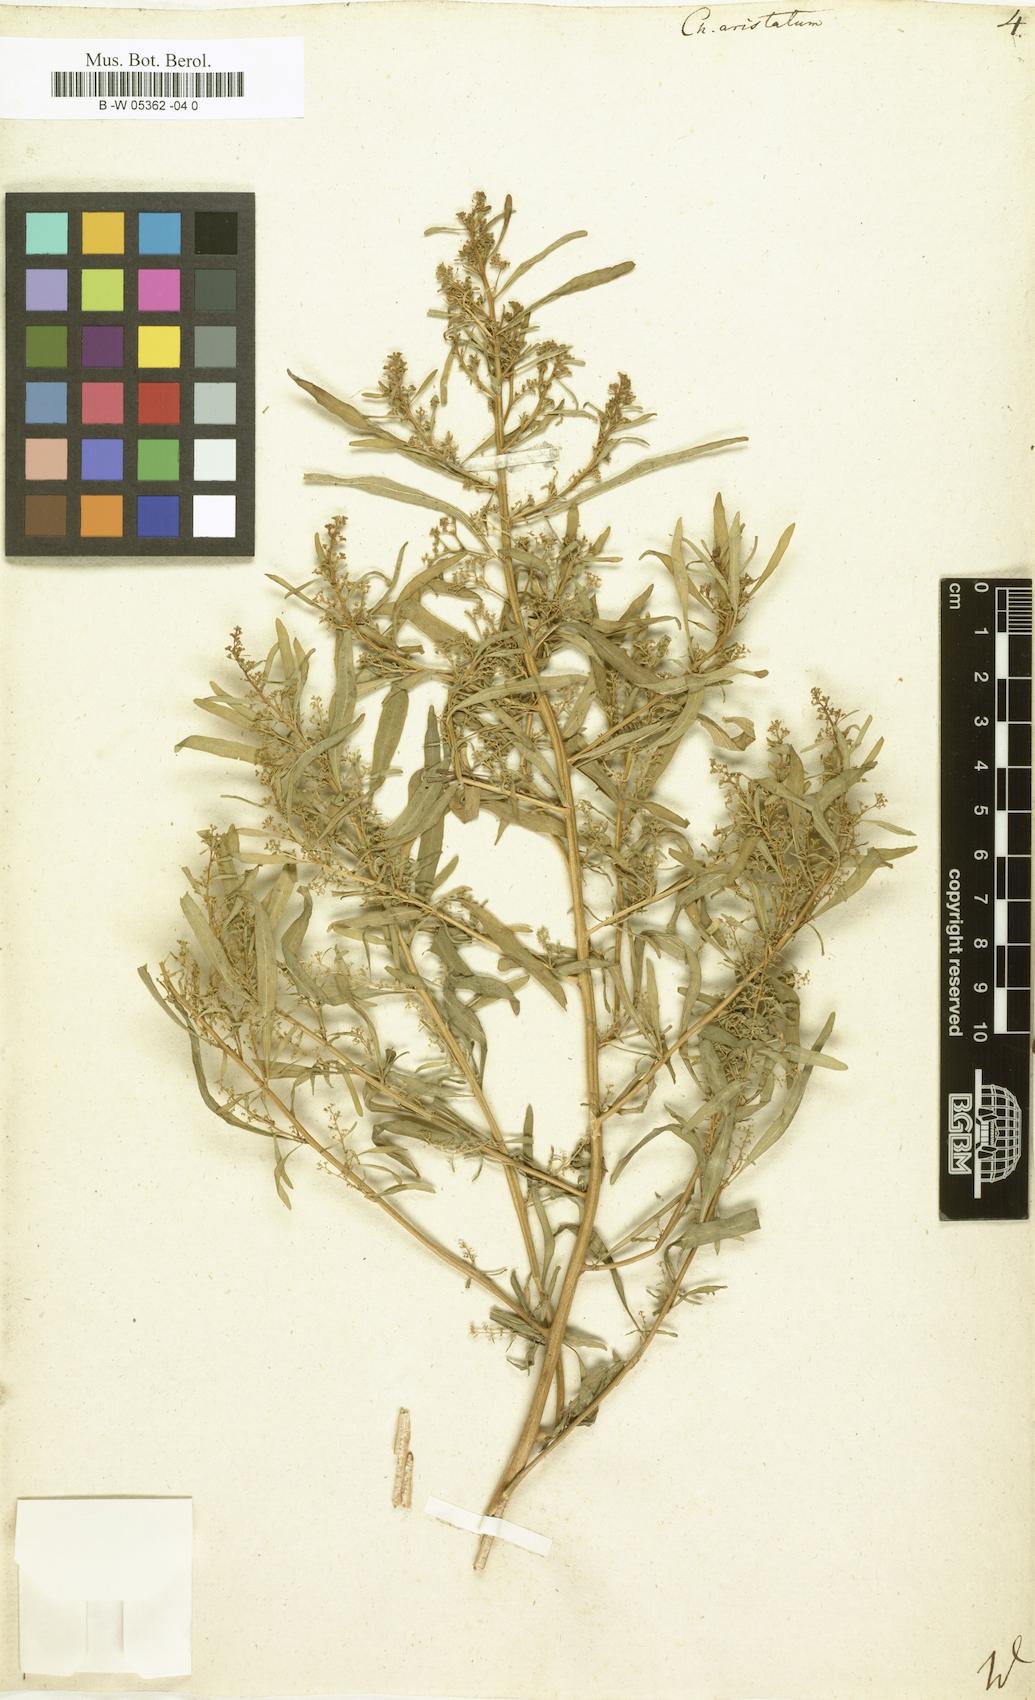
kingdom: Plantae
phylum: Tracheophyta
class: Magnoliopsida
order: Caryophyllales
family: Amaranthaceae
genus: Teloxys
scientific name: Teloxys aristata
